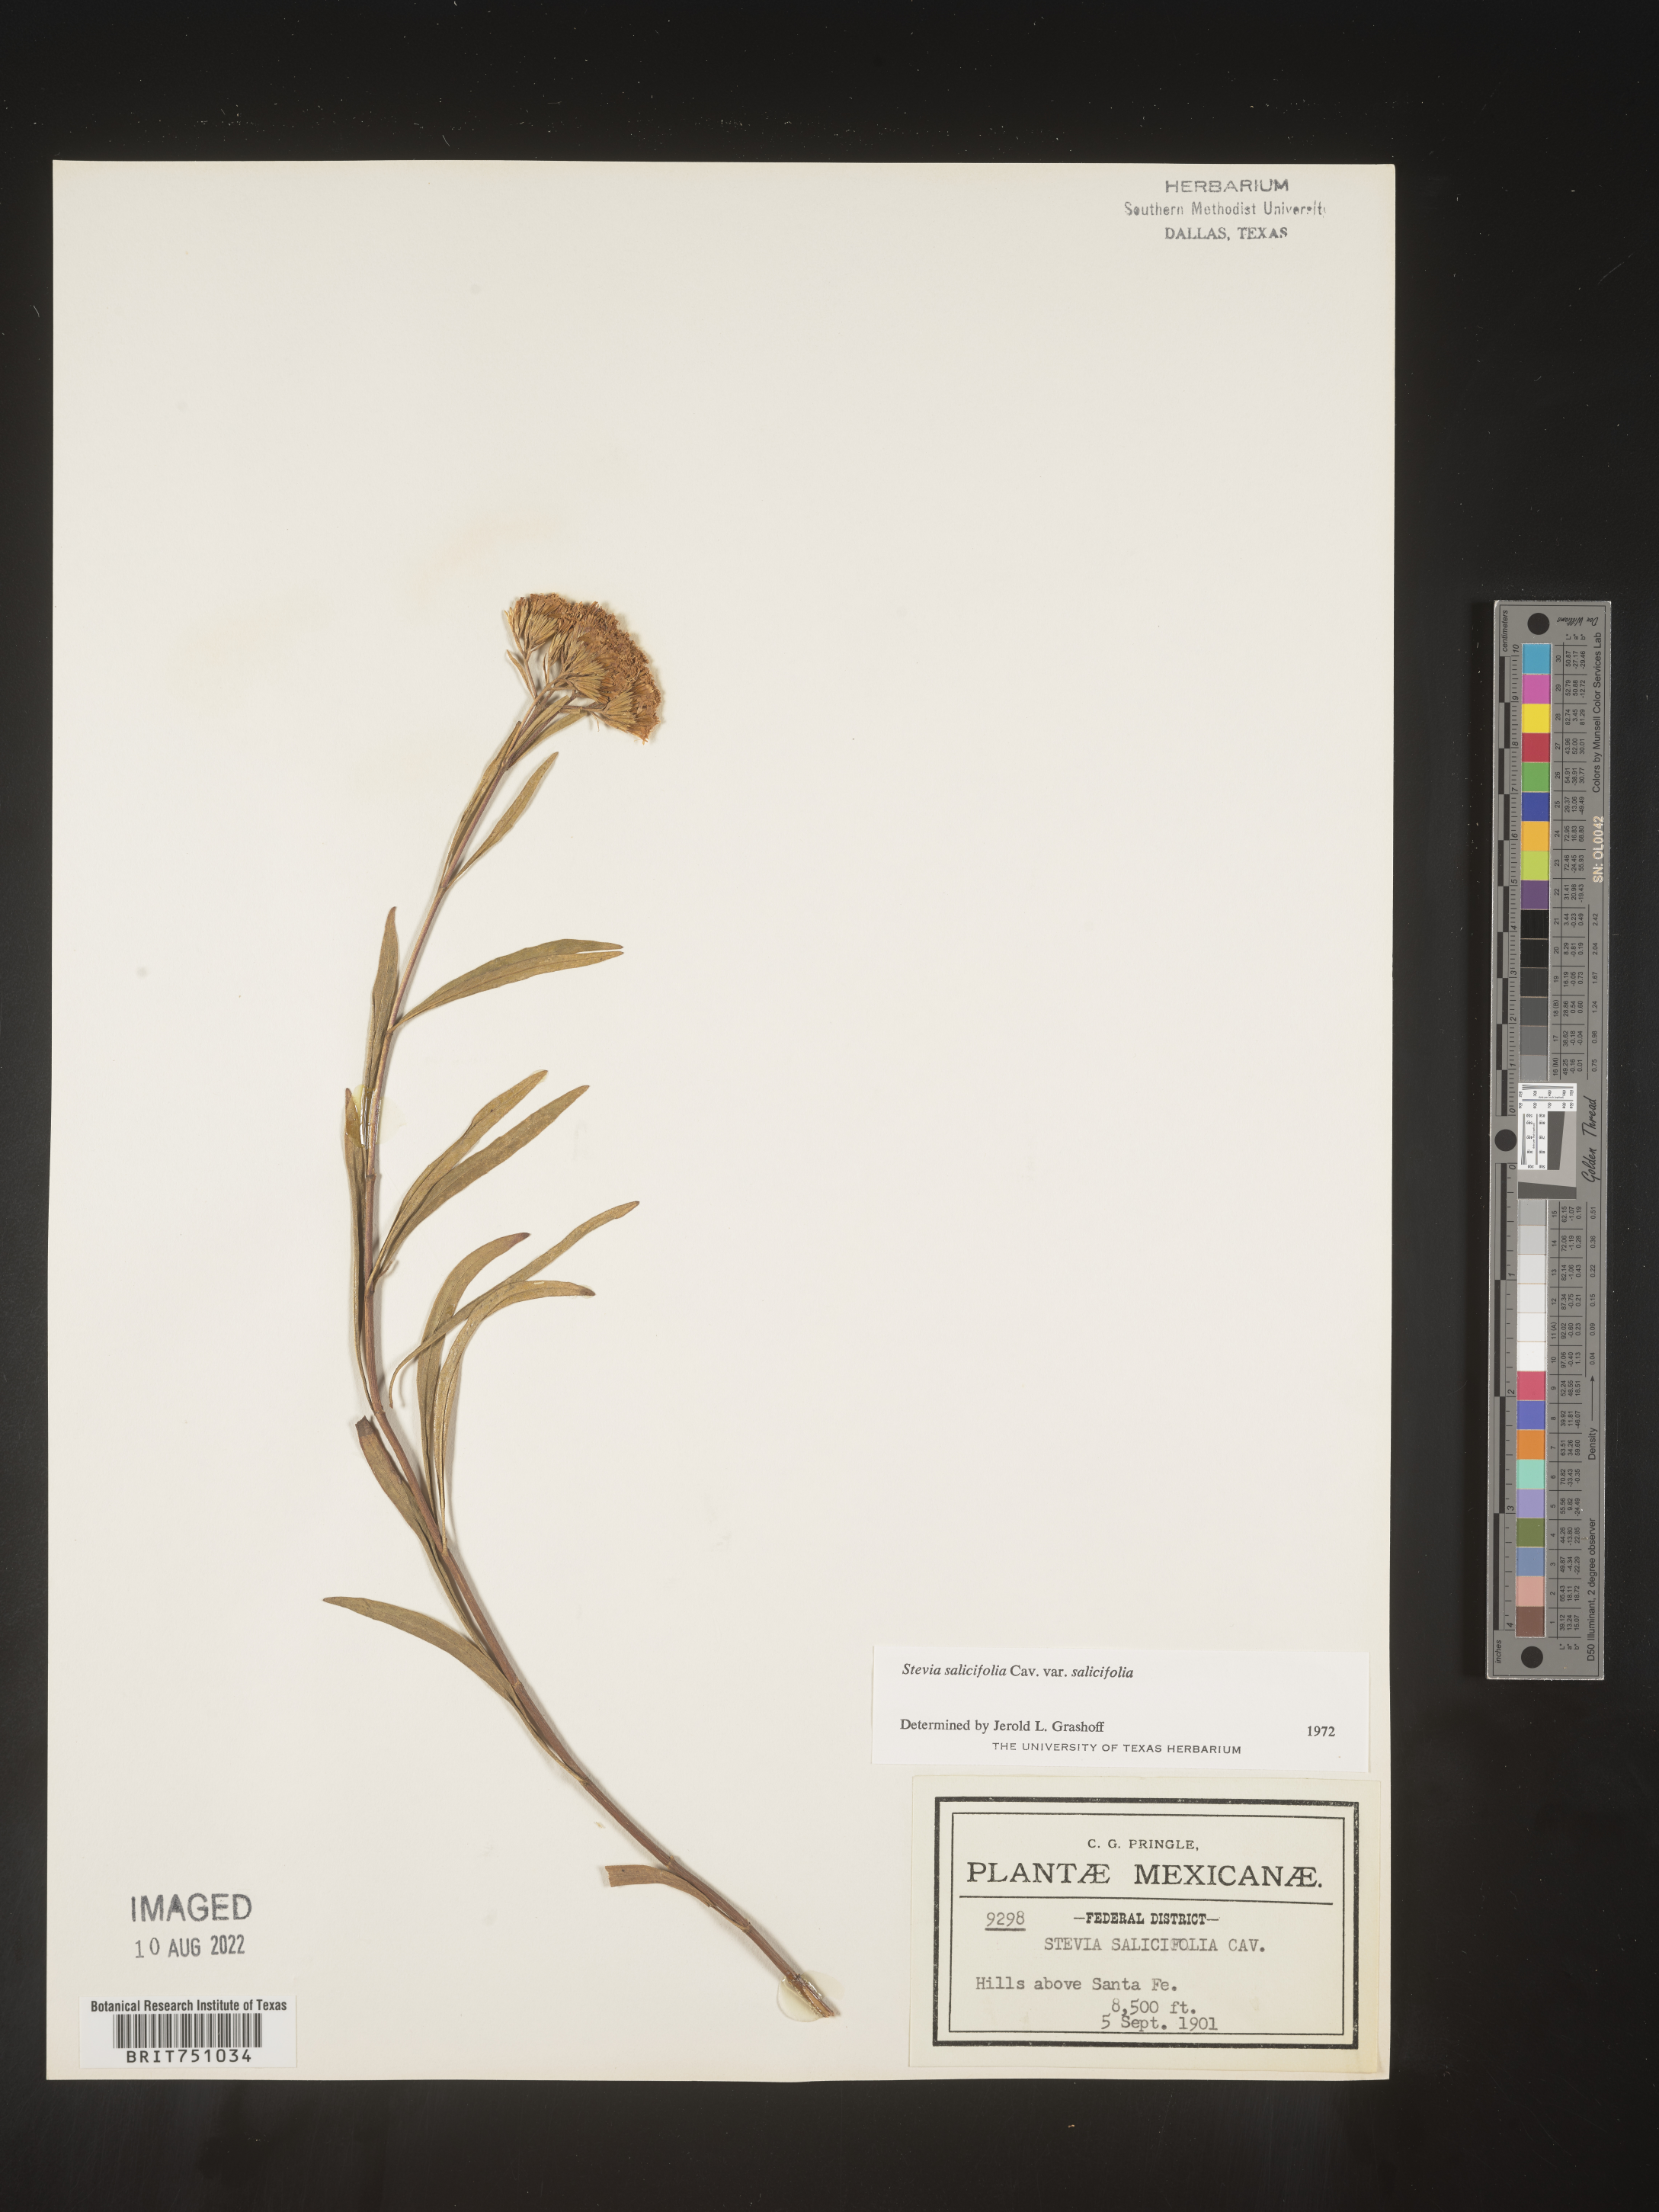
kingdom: Plantae
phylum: Tracheophyta
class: Magnoliopsida
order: Asterales
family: Asteraceae
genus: Stevia
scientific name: Stevia salicifolia
